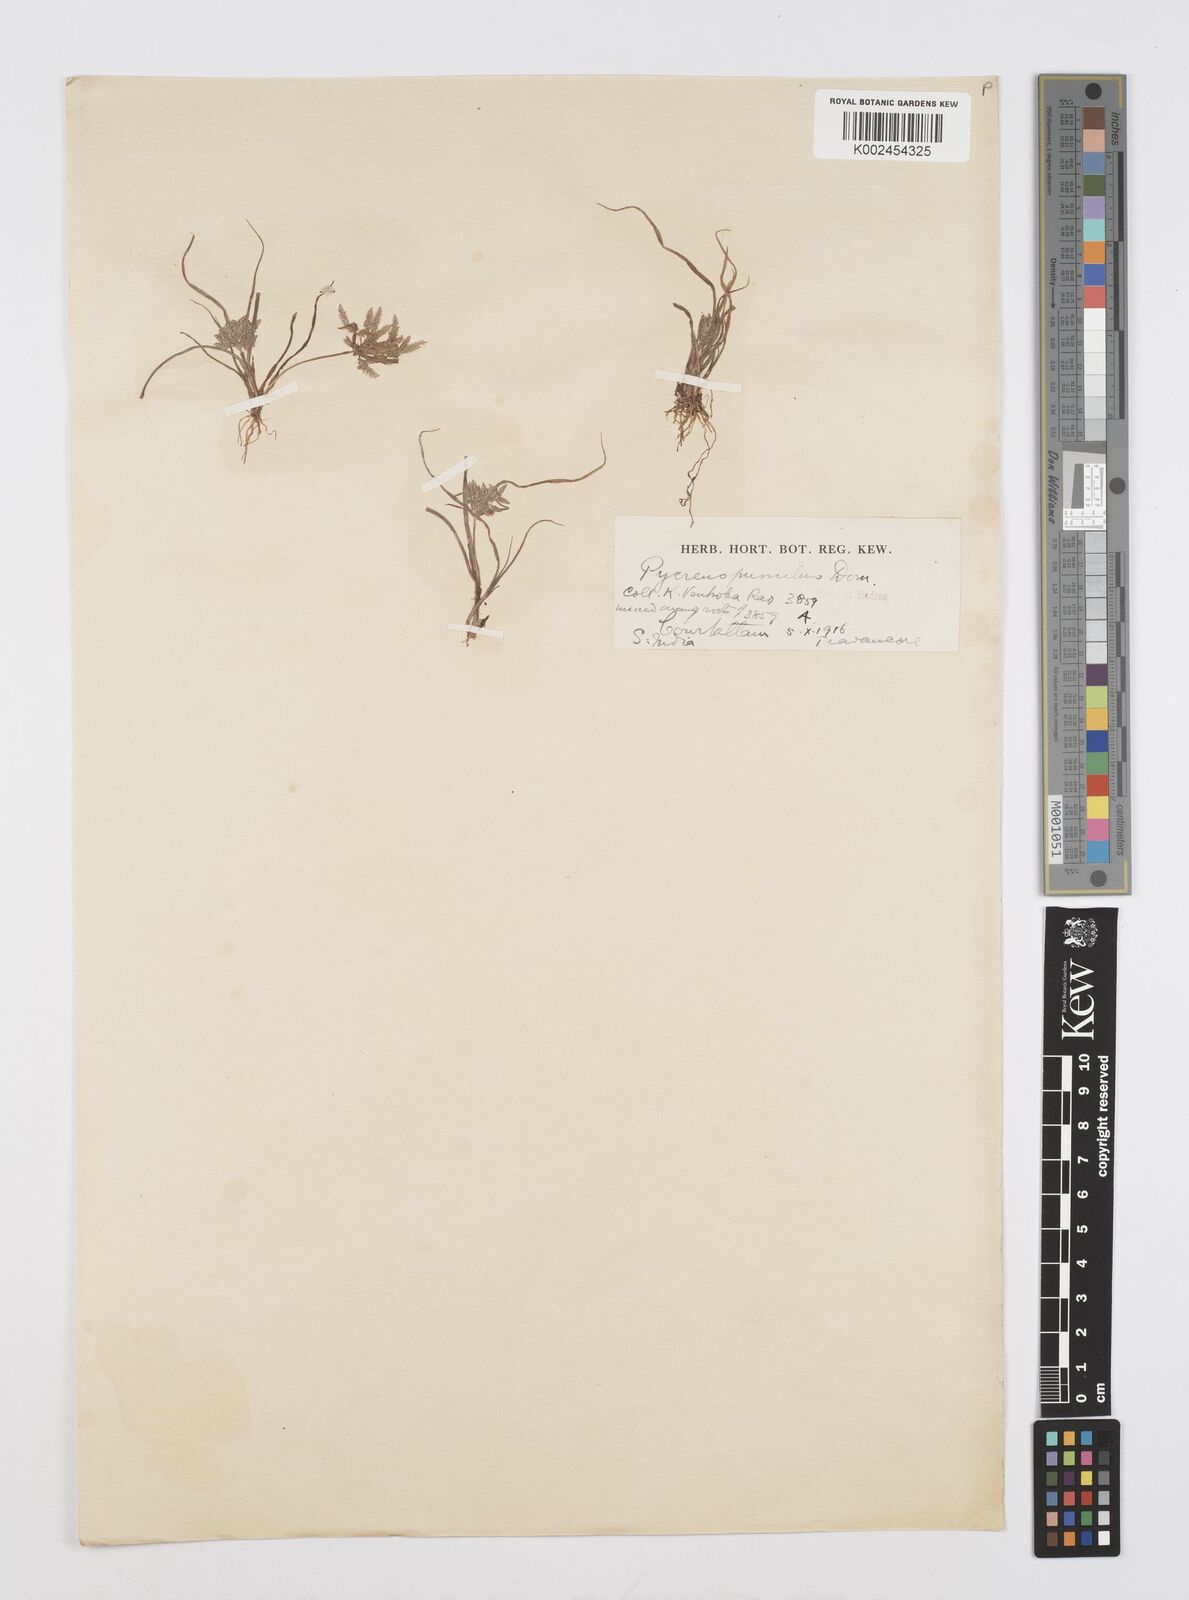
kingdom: Plantae
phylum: Tracheophyta
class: Liliopsida
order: Poales
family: Cyperaceae
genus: Cyperus
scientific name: Cyperus pumilus
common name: Low flatsedge
